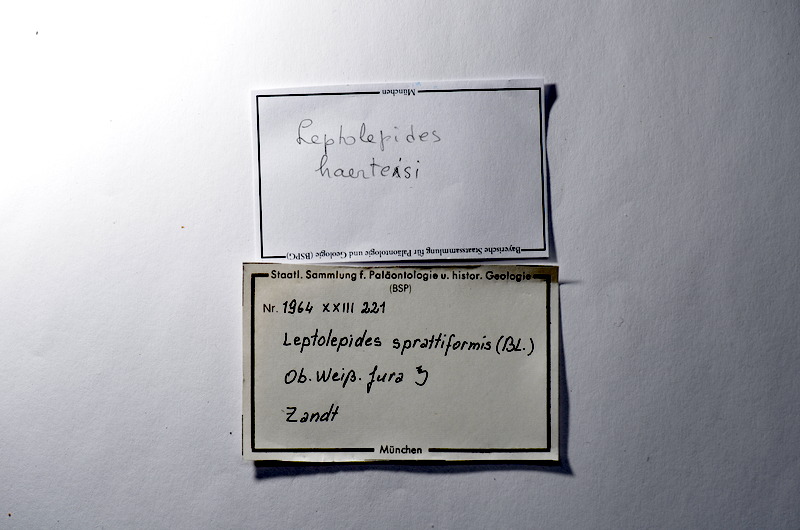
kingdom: Animalia
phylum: Chordata
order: Salmoniformes
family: Orthogonikleithridae
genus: Leptolepides
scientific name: Leptolepides haerteisi
